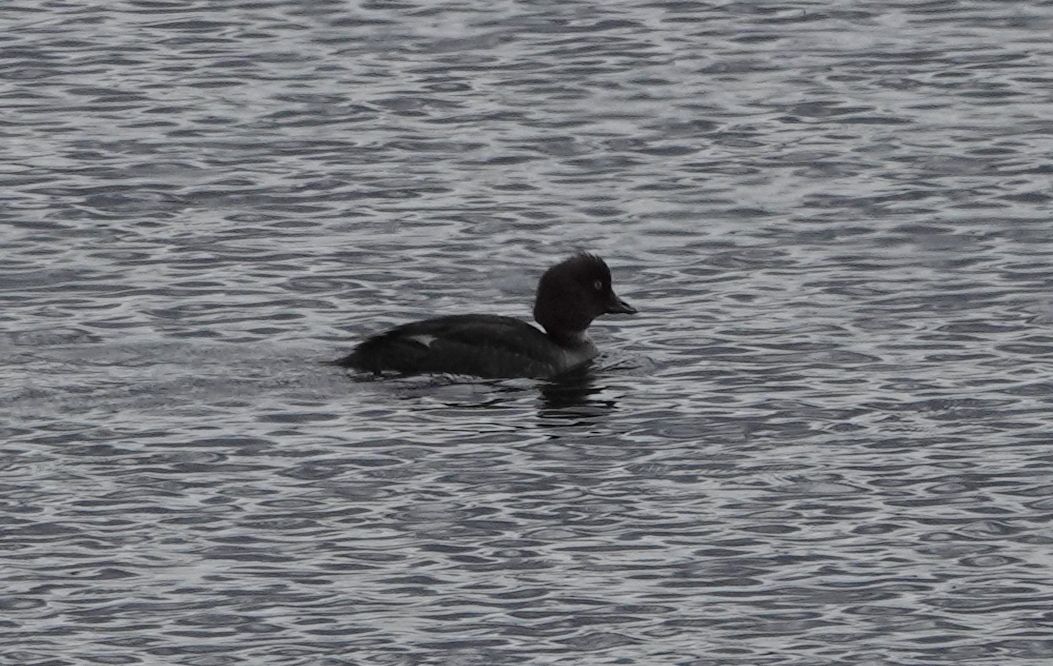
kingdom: Animalia
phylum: Chordata
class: Aves
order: Anseriformes
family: Anatidae
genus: Bucephala
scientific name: Bucephala clangula
